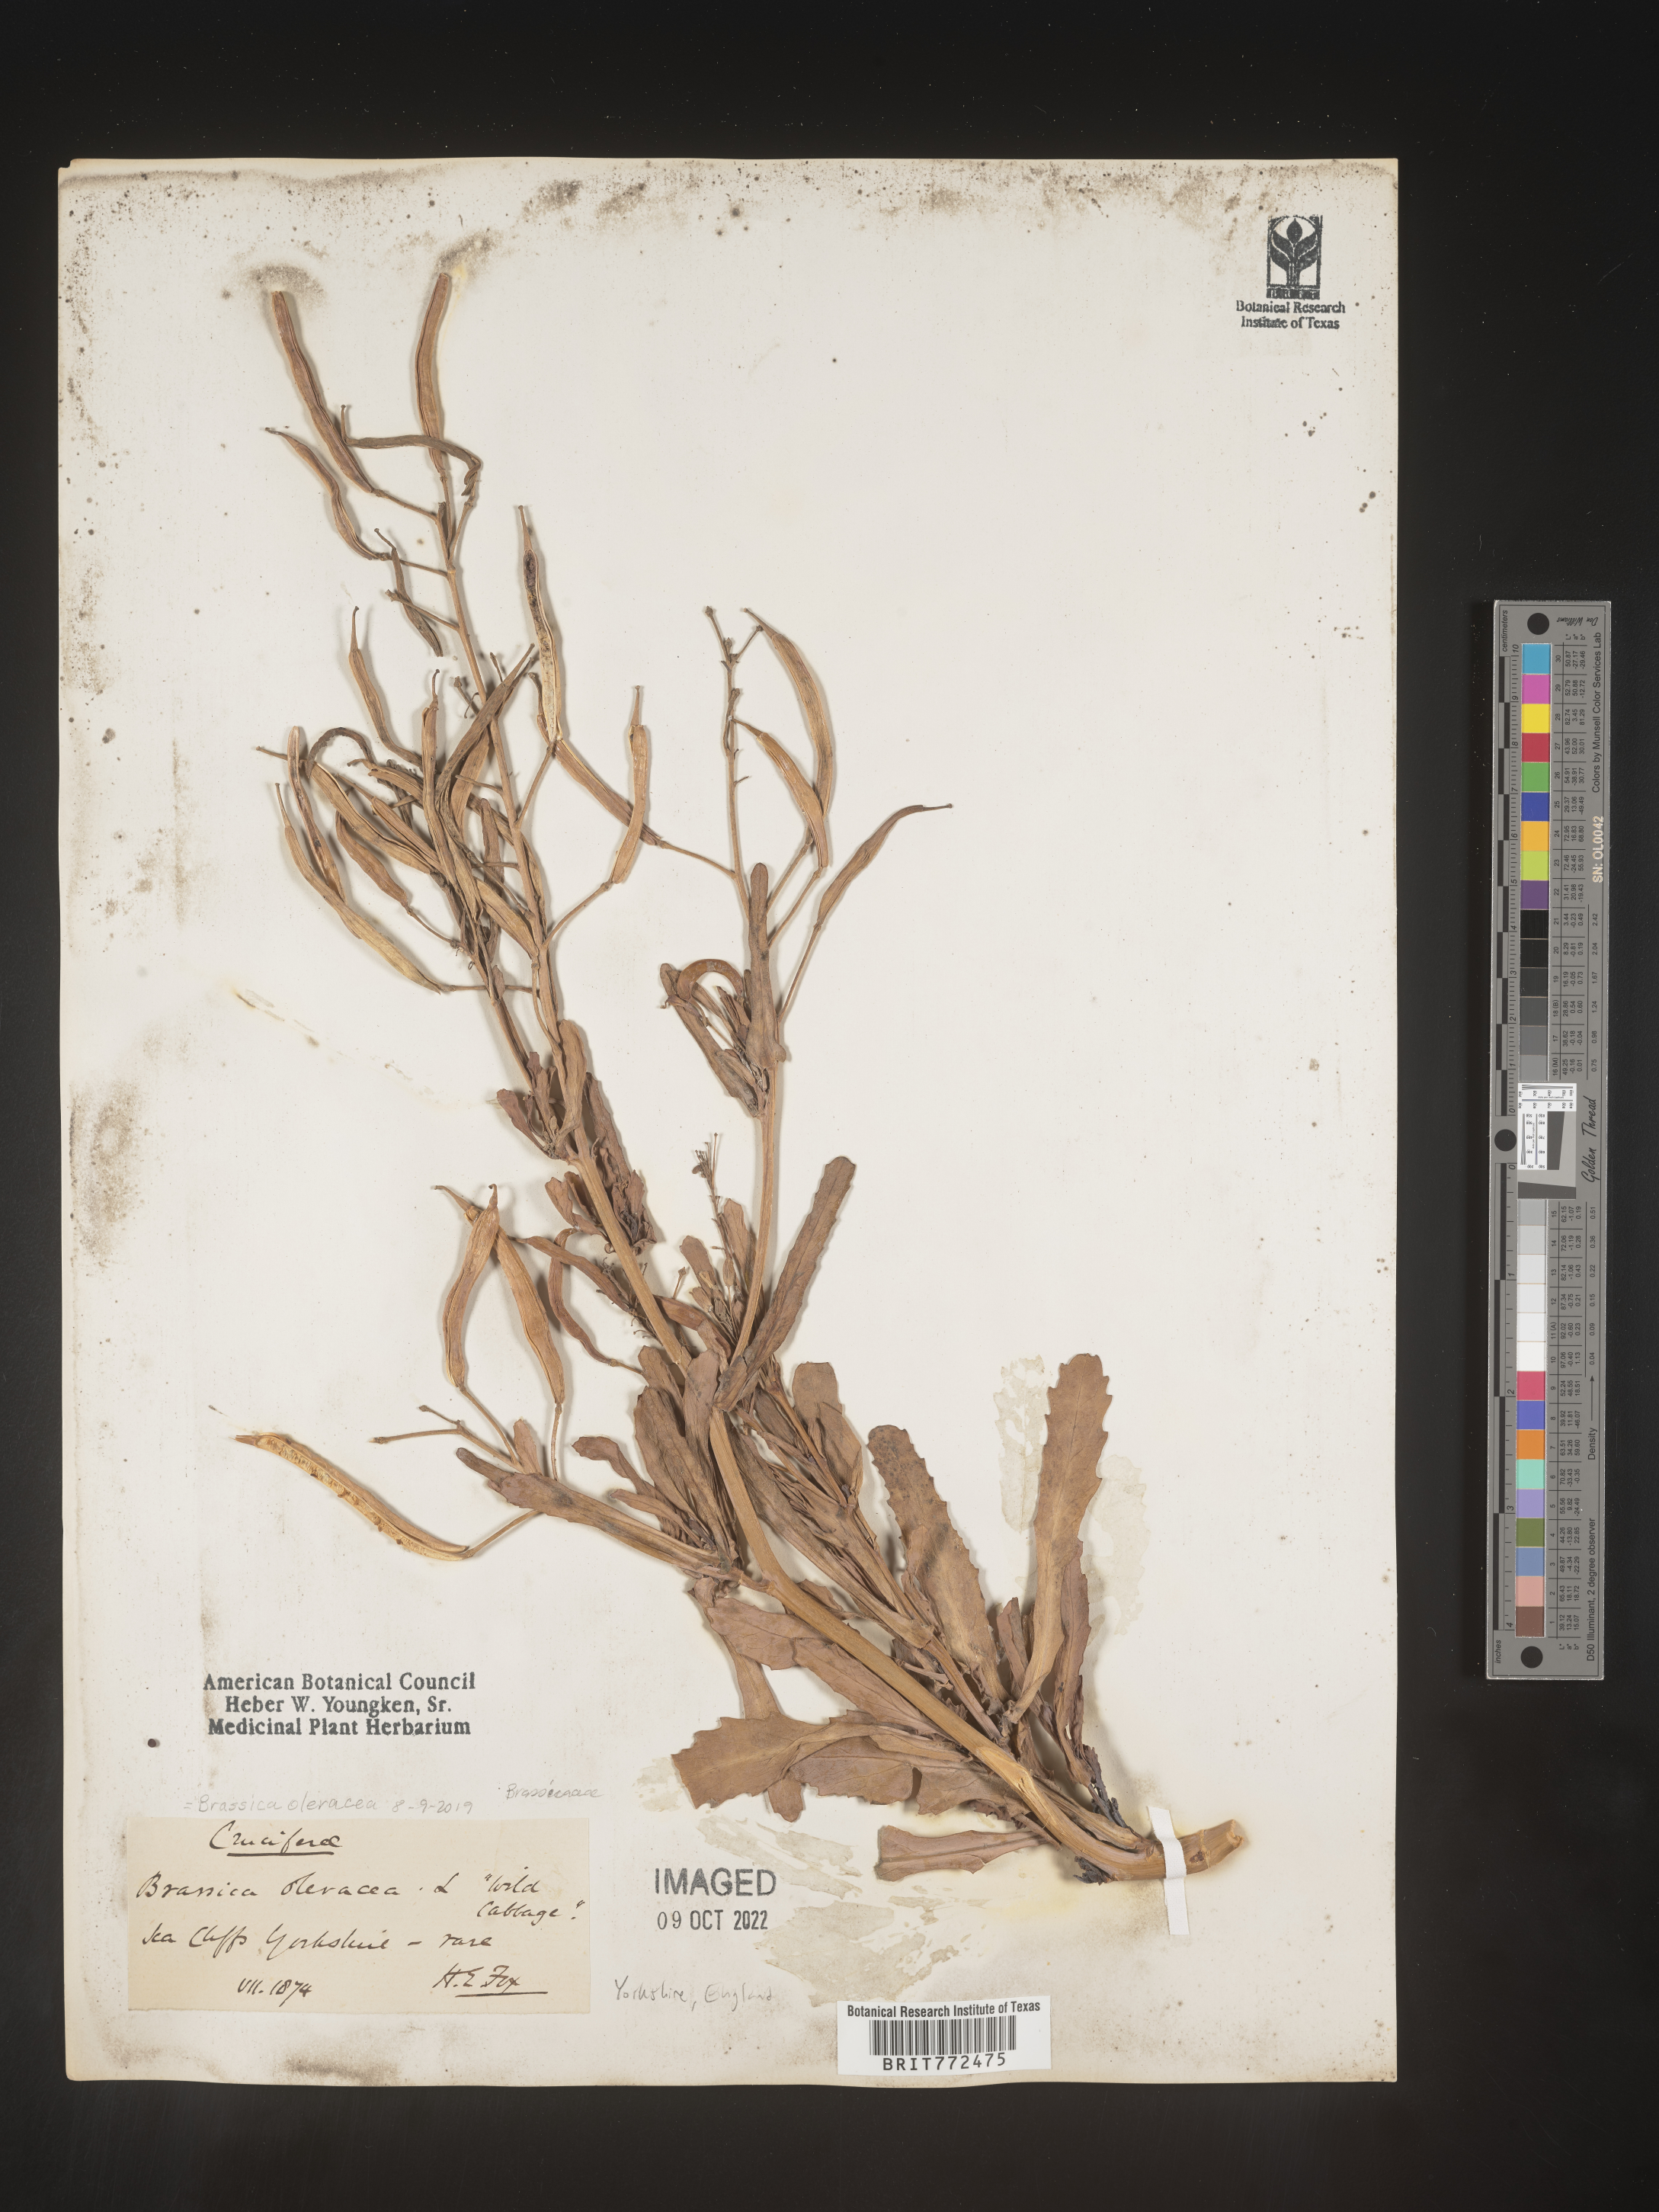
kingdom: Plantae
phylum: Tracheophyta
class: Magnoliopsida
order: Brassicales
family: Brassicaceae
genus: Brassica
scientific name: Brassica
